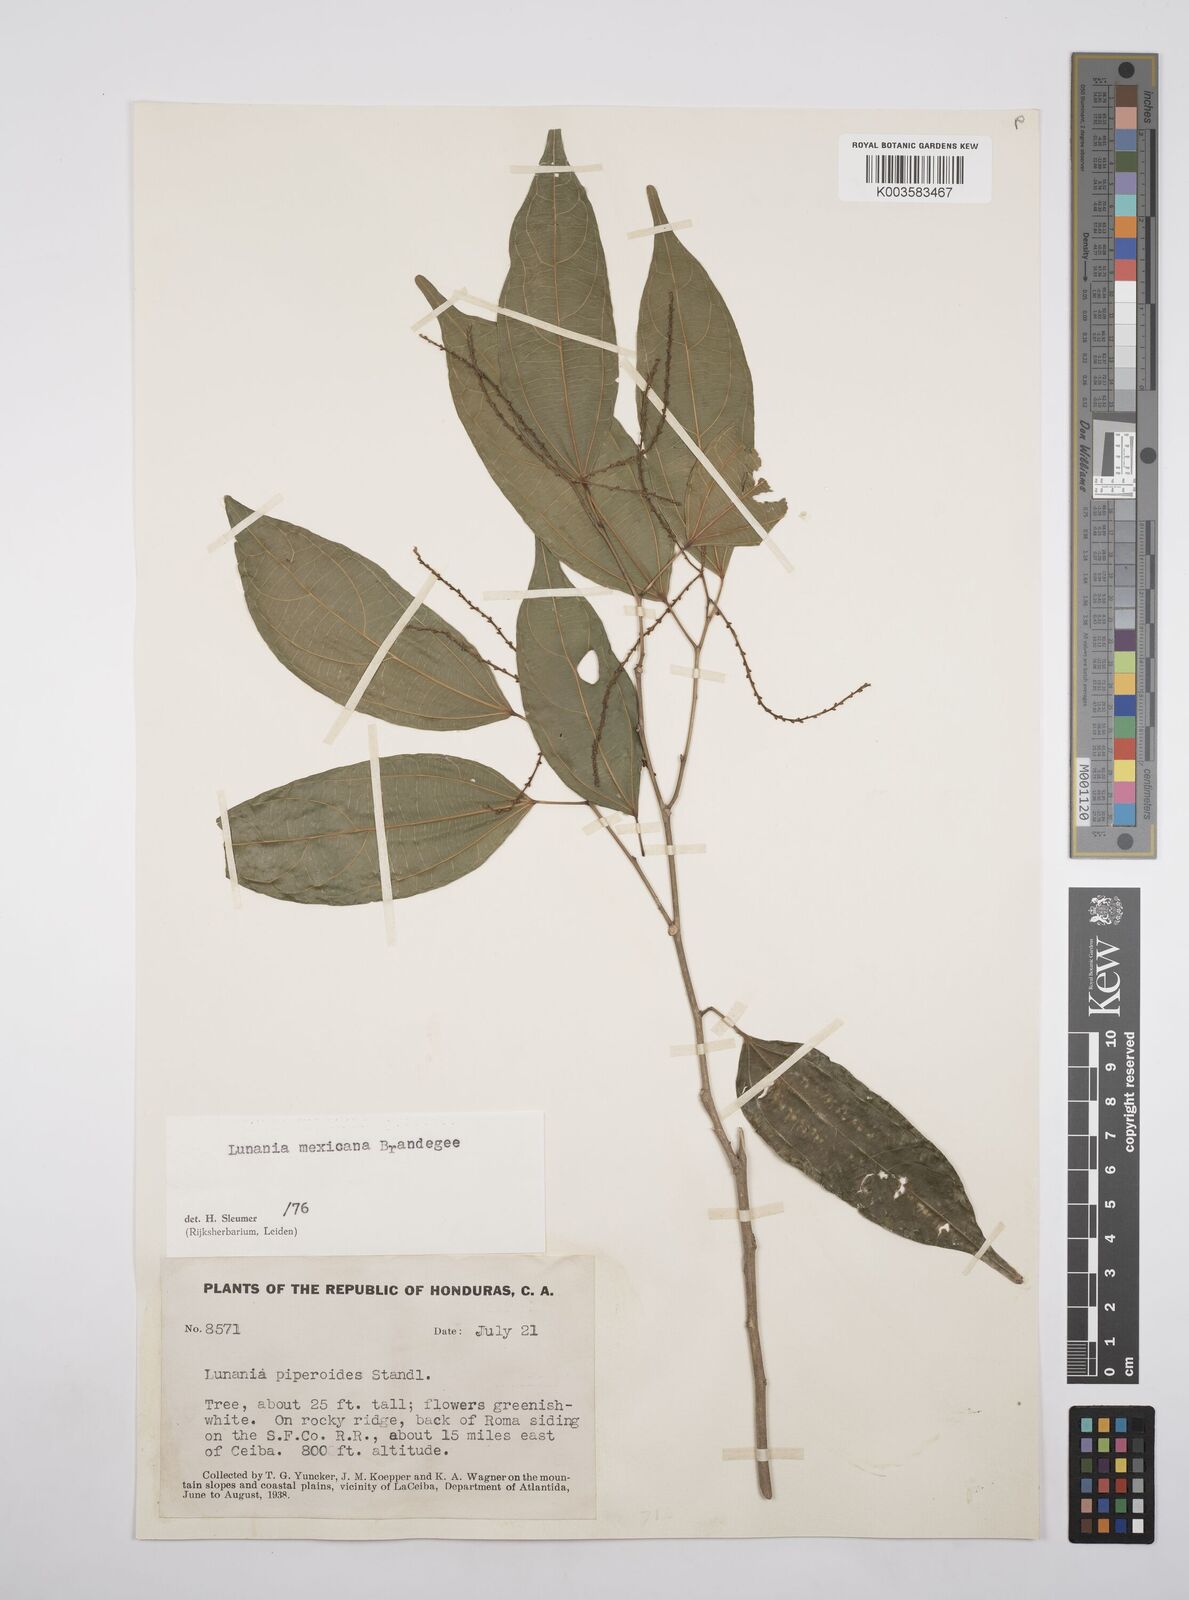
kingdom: Plantae
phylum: Tracheophyta
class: Magnoliopsida
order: Malpighiales
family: Salicaceae
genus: Lunania
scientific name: Lunania mexicana
